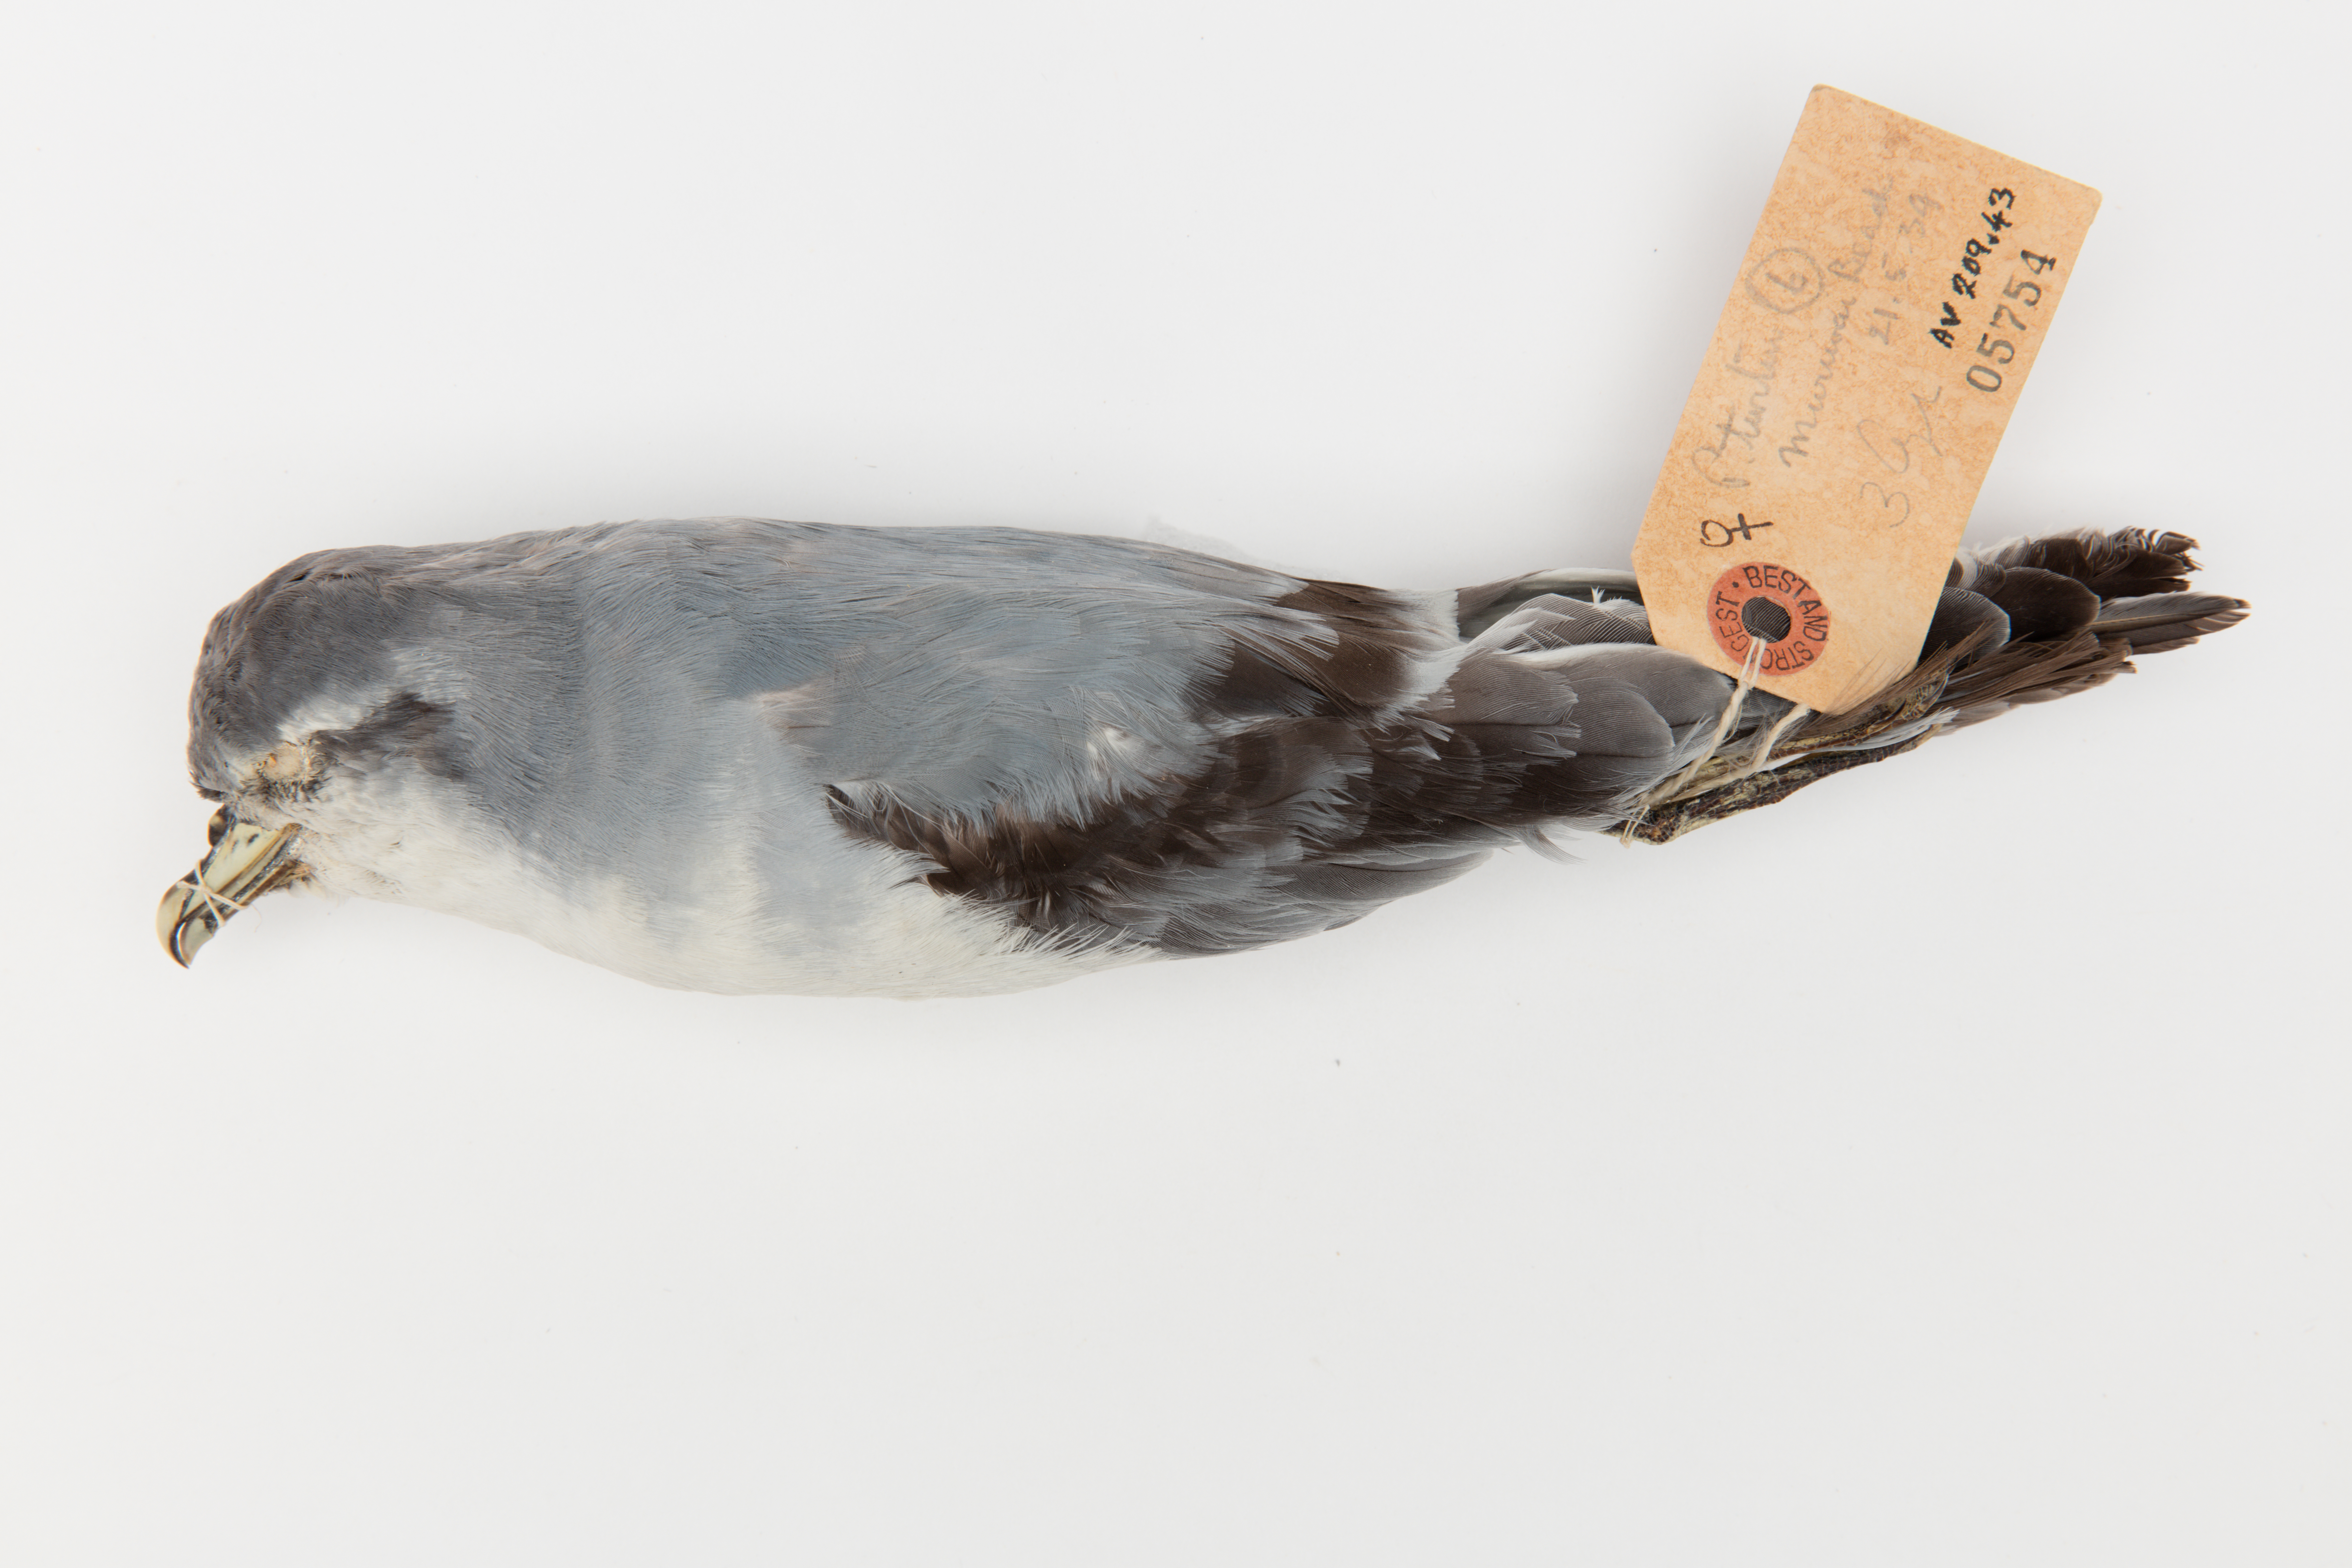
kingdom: Animalia
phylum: Chordata
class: Aves
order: Procellariiformes
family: Procellariidae
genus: Pachyptila
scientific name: Pachyptila turtur
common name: Fairy prion
